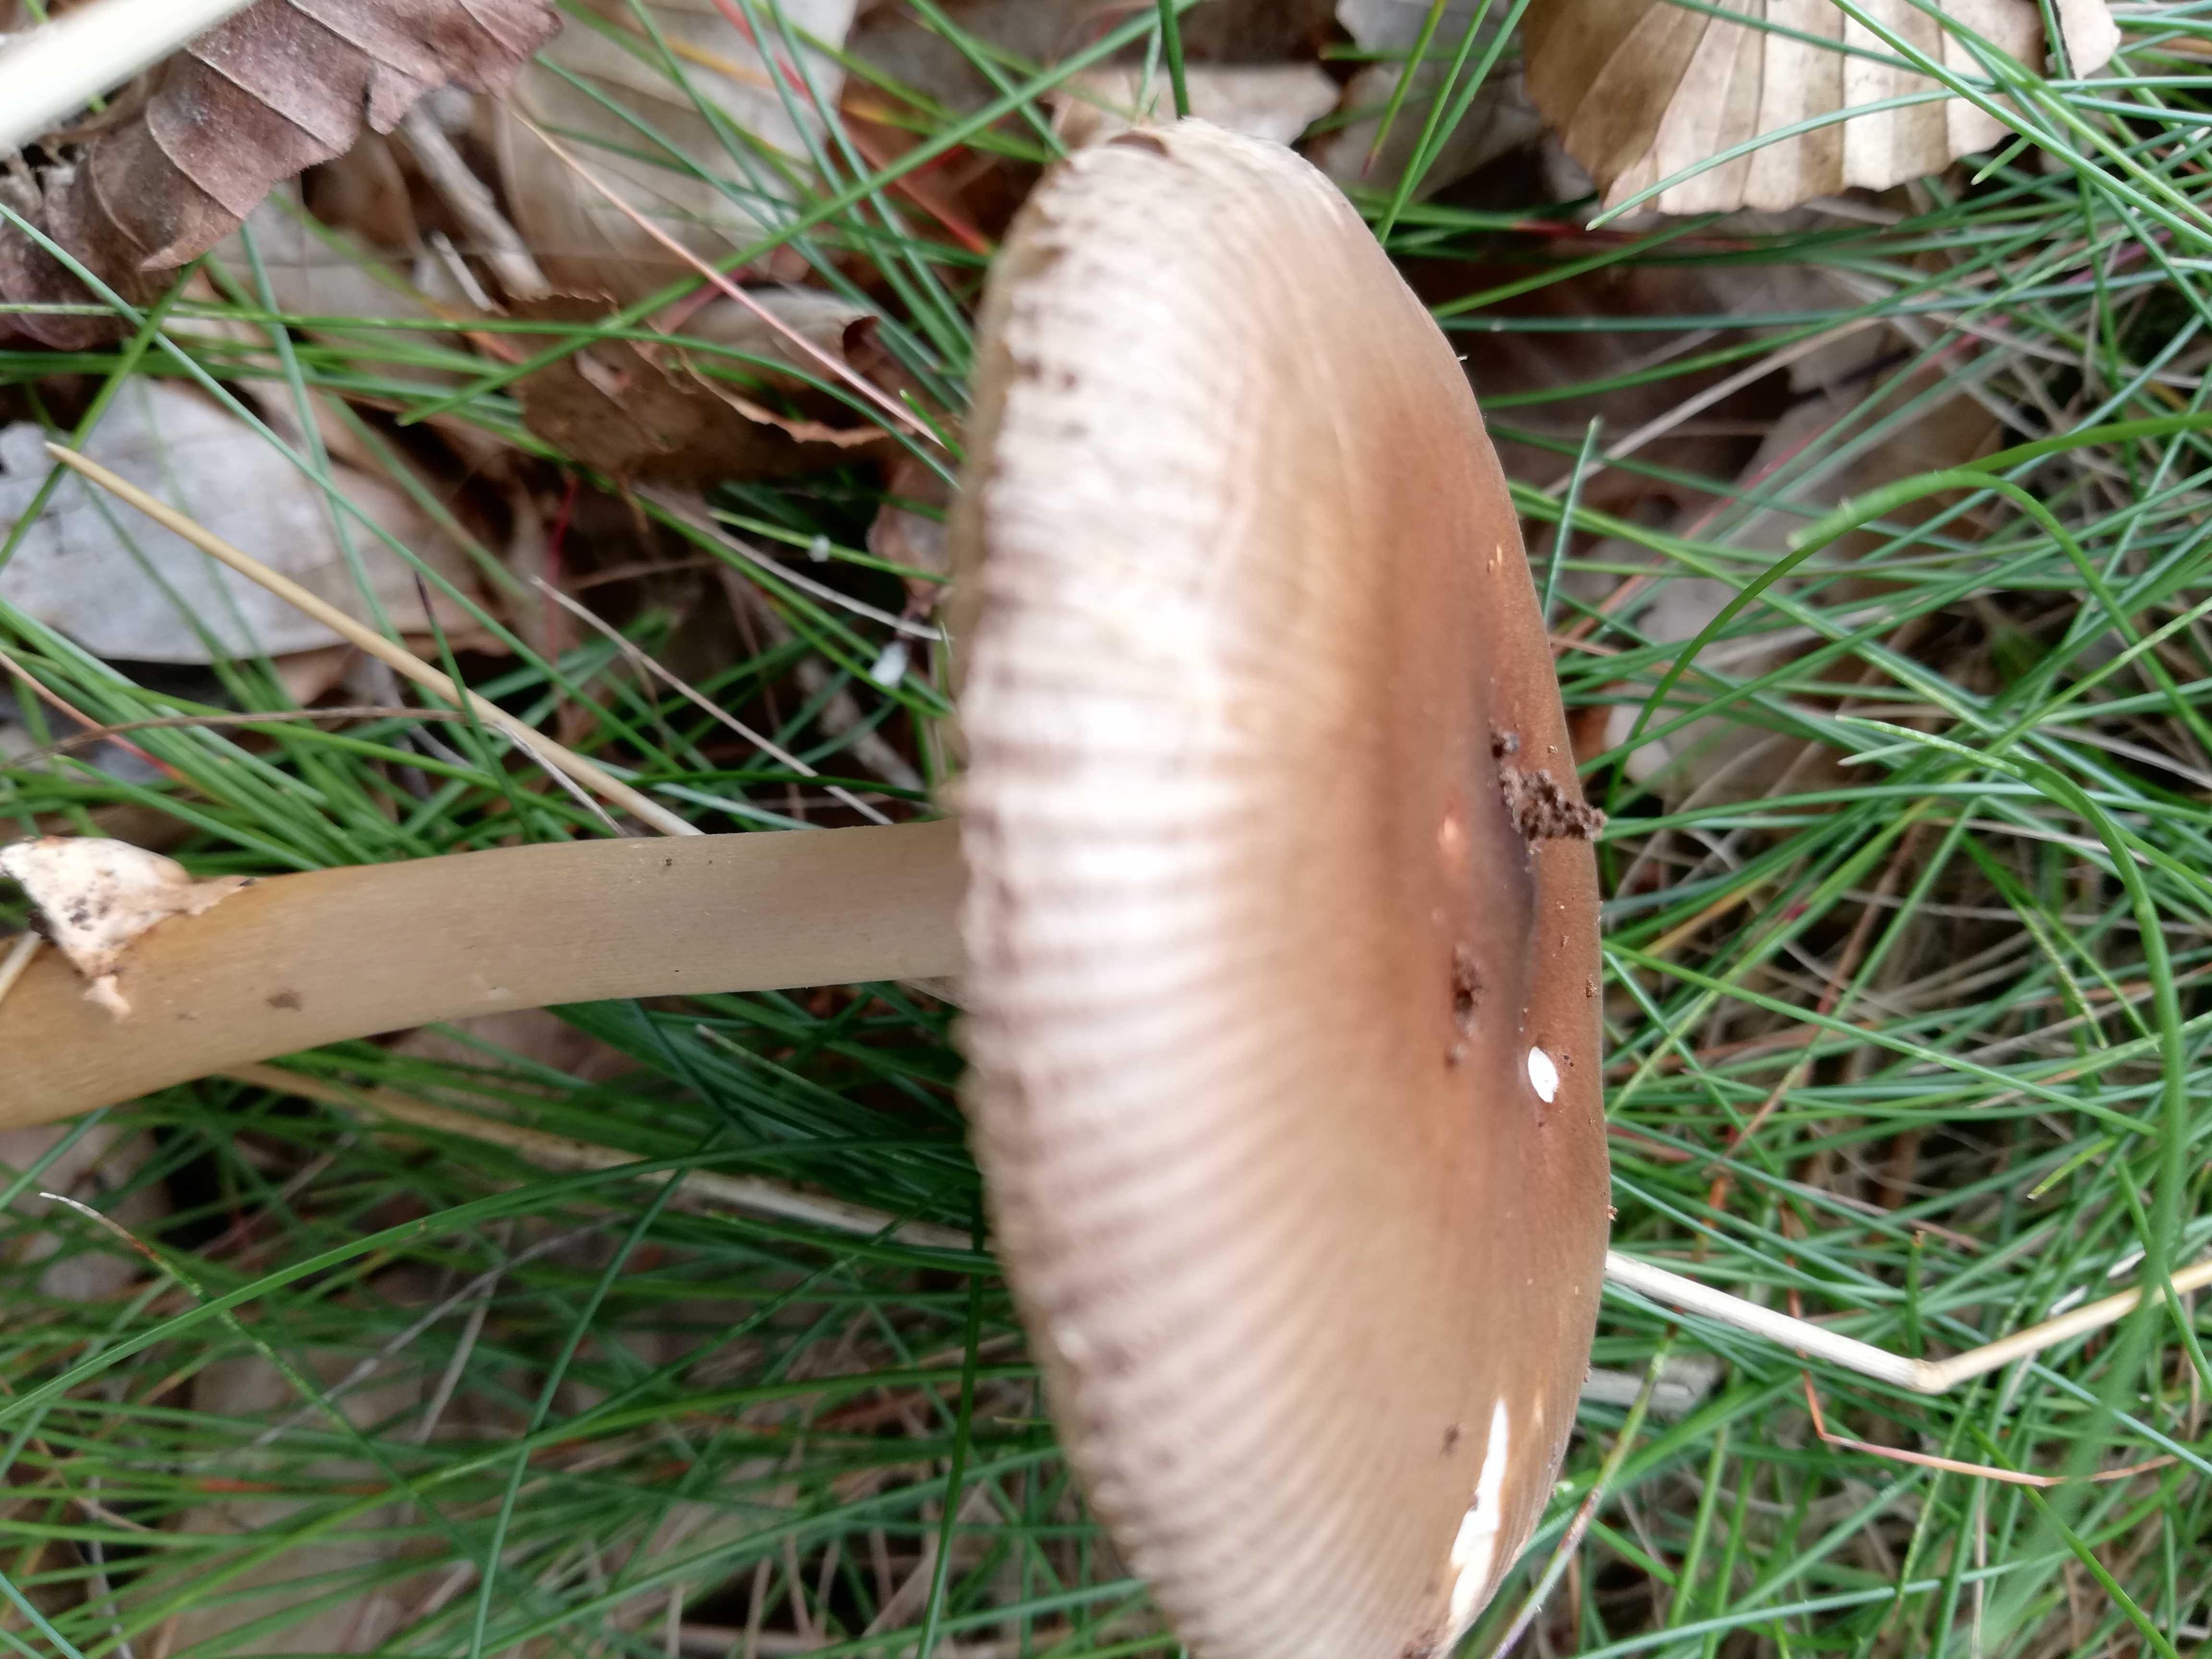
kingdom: Fungi
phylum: Basidiomycota
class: Agaricomycetes
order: Agaricales
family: Amanitaceae
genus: Amanita
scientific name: Amanita fulva
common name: brun kam-fluesvamp
